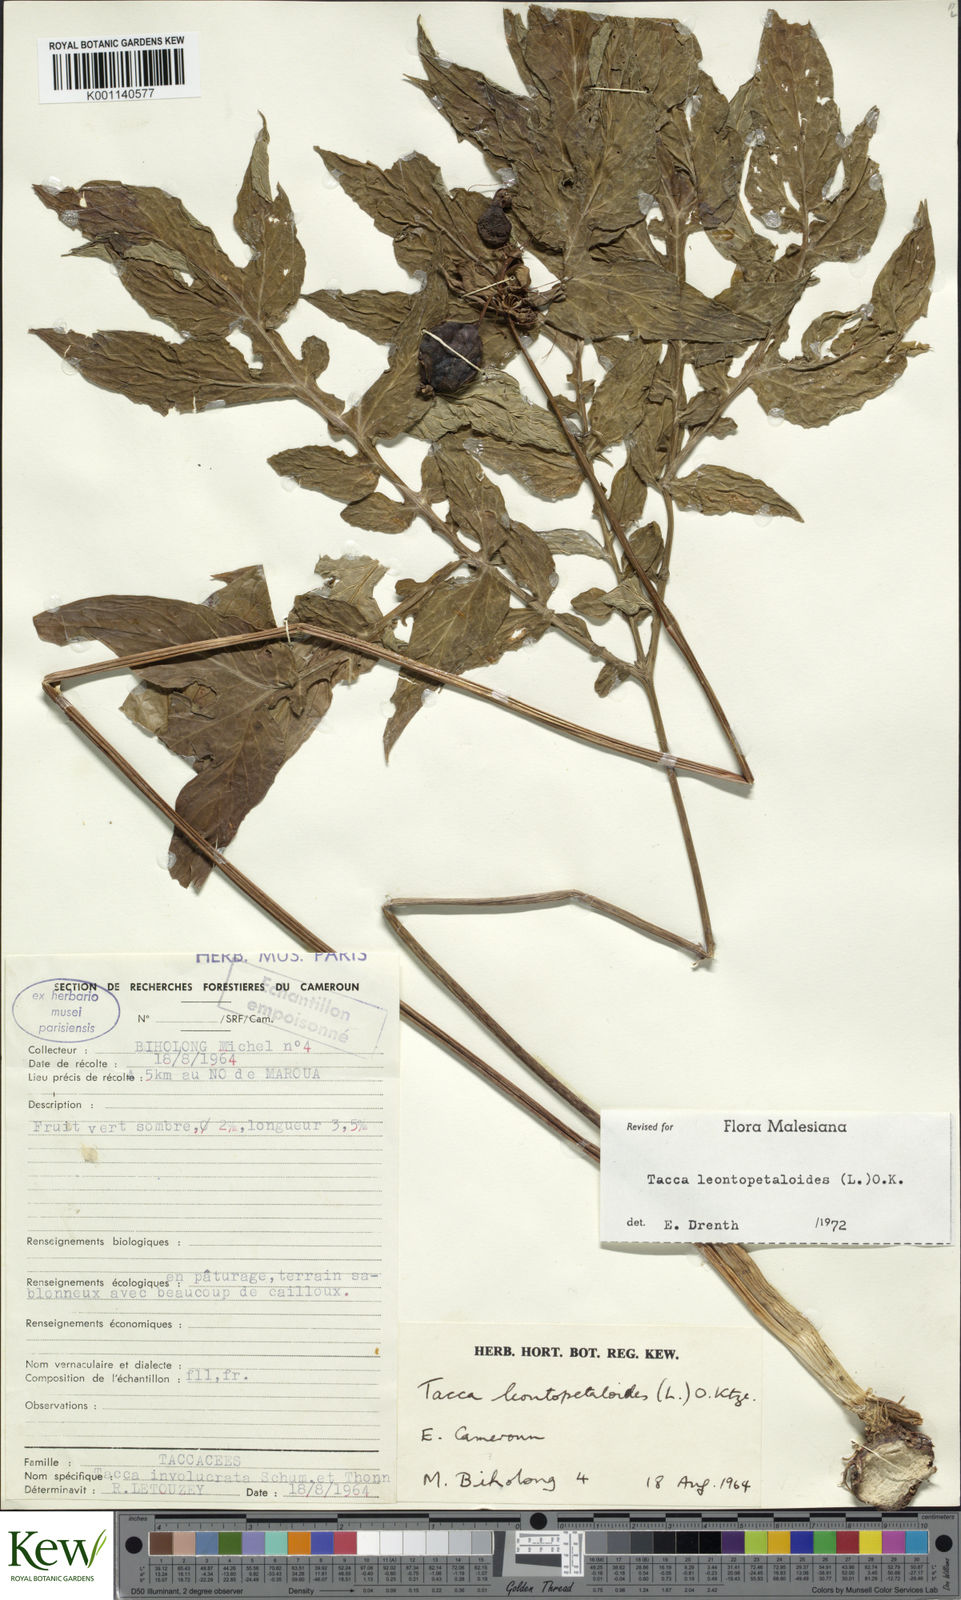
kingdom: Plantae
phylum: Tracheophyta
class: Liliopsida
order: Dioscoreales
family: Dioscoreaceae
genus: Tacca
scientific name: Tacca leontopetaloides
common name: Arrowroot
